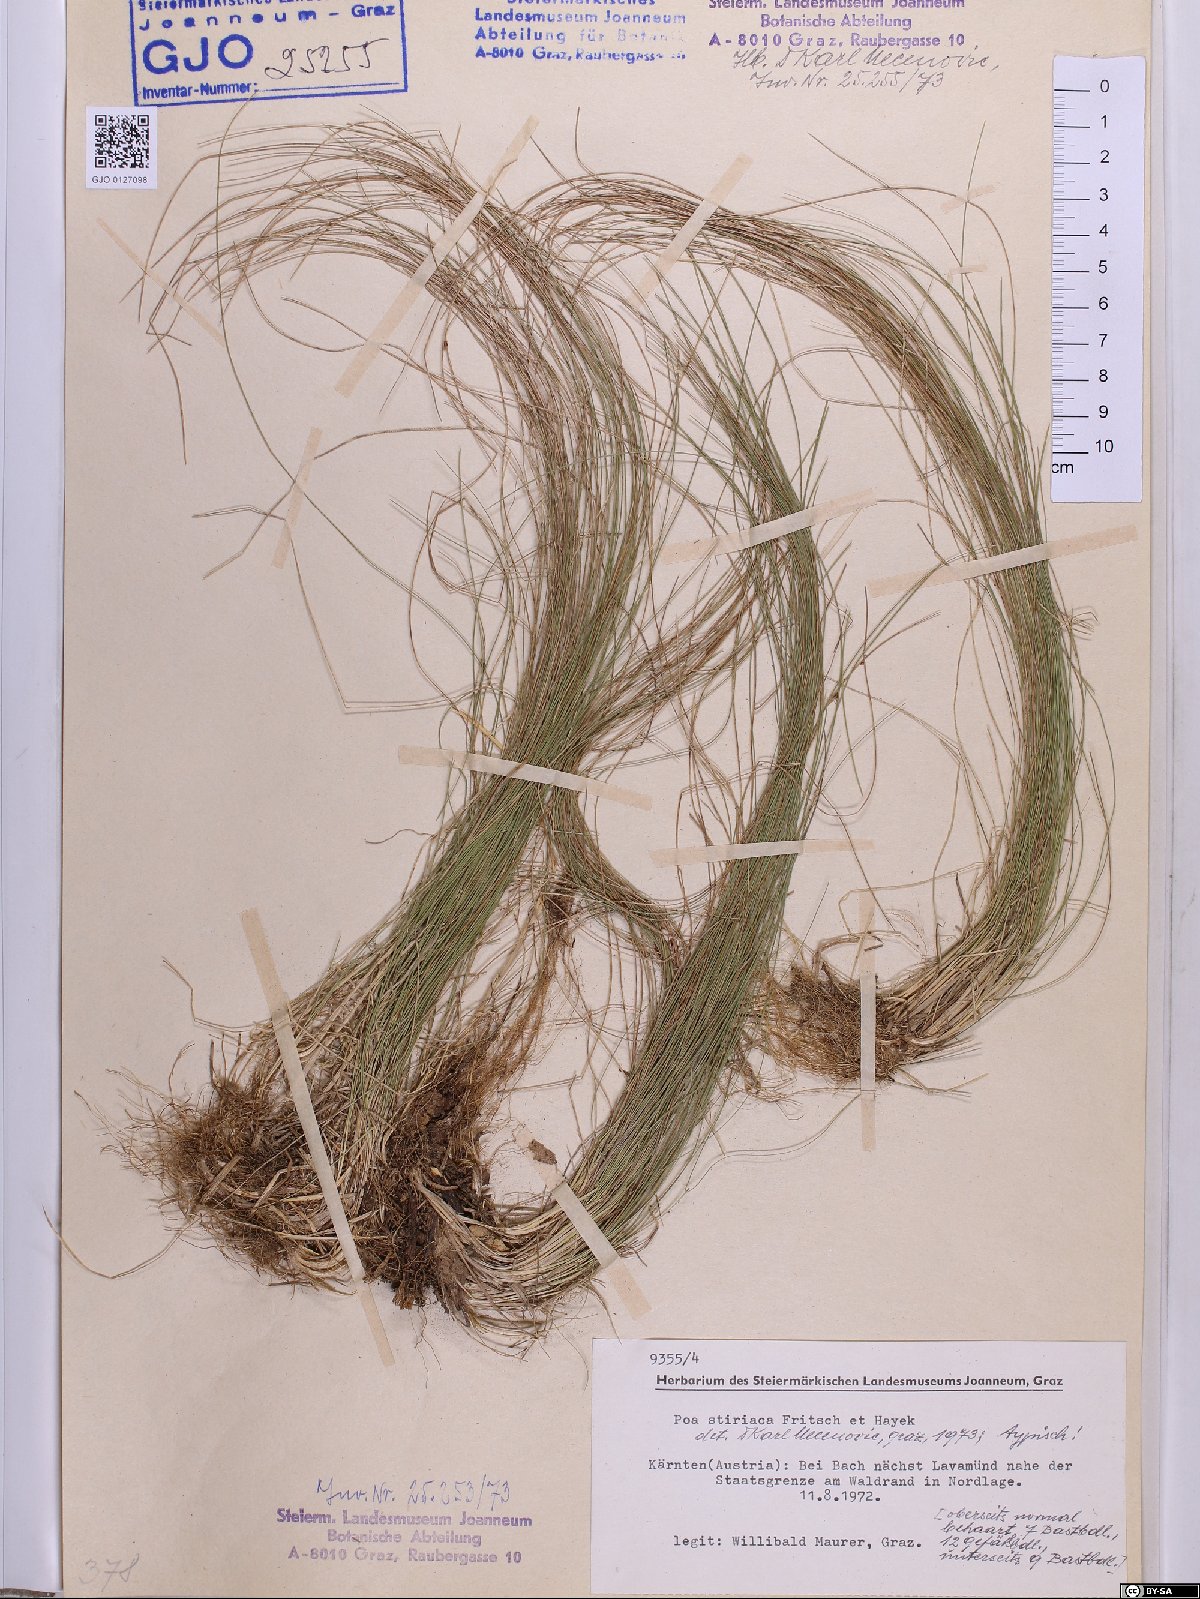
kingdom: Plantae
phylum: Tracheophyta
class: Liliopsida
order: Poales
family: Poaceae
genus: Poa
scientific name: Poa stiriaca
